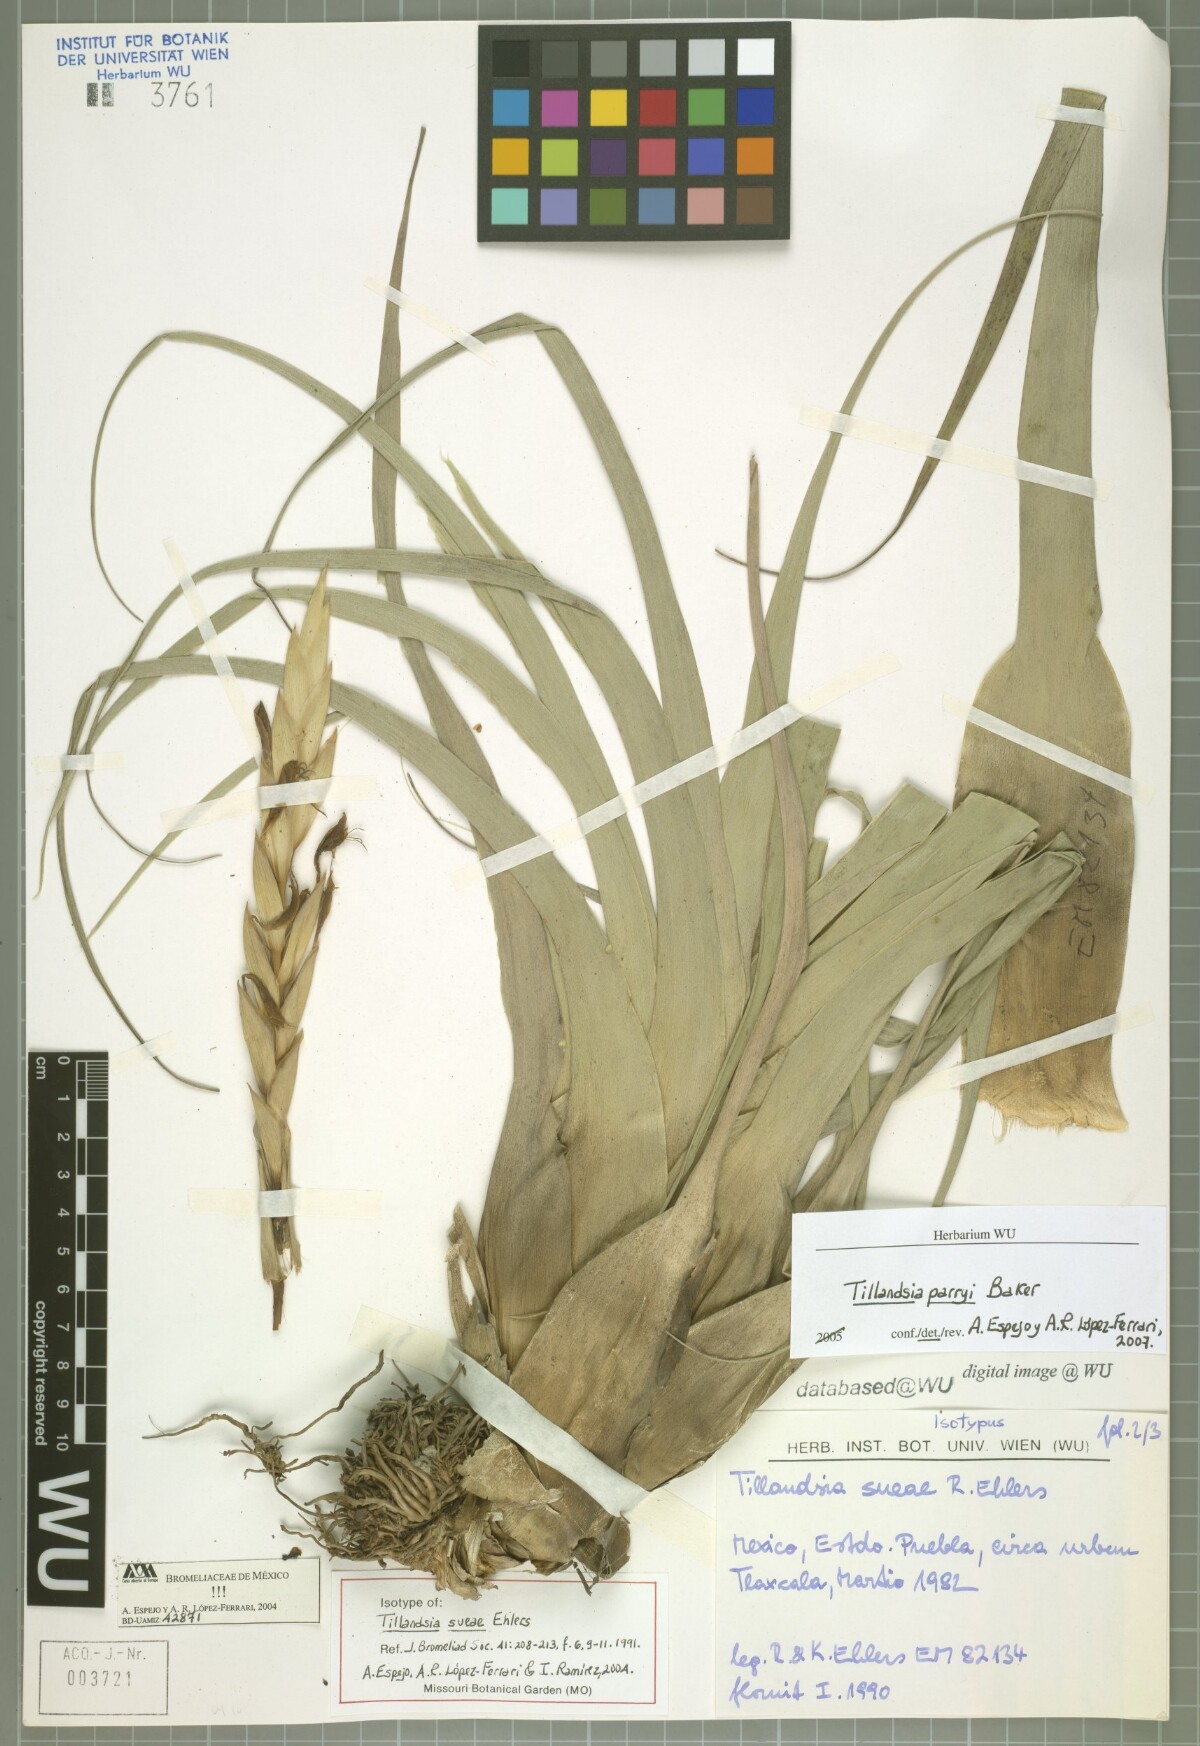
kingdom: Plantae
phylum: Tracheophyta
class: Liliopsida
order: Poales
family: Bromeliaceae
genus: Tillandsia
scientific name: Tillandsia sueae
